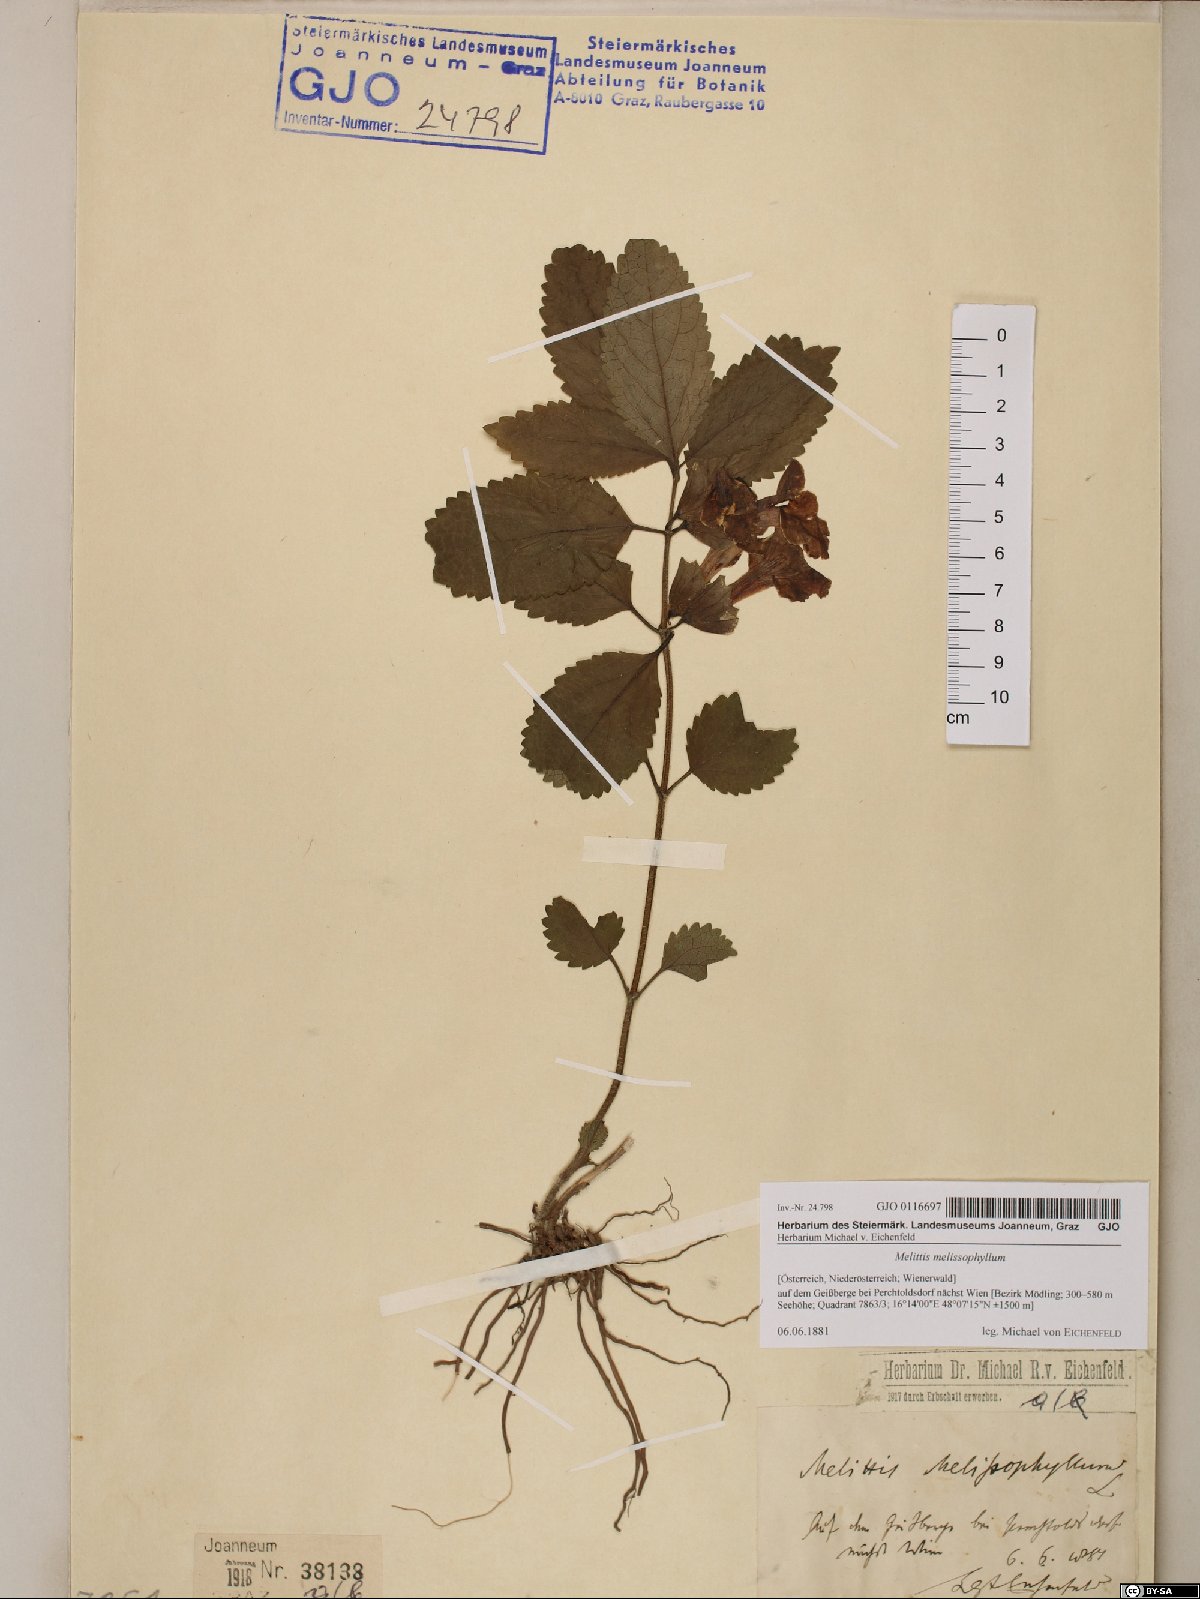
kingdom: Plantae
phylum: Tracheophyta
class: Magnoliopsida
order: Lamiales
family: Lamiaceae
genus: Melittis
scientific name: Melittis melissophyllum
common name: Bastard balm
